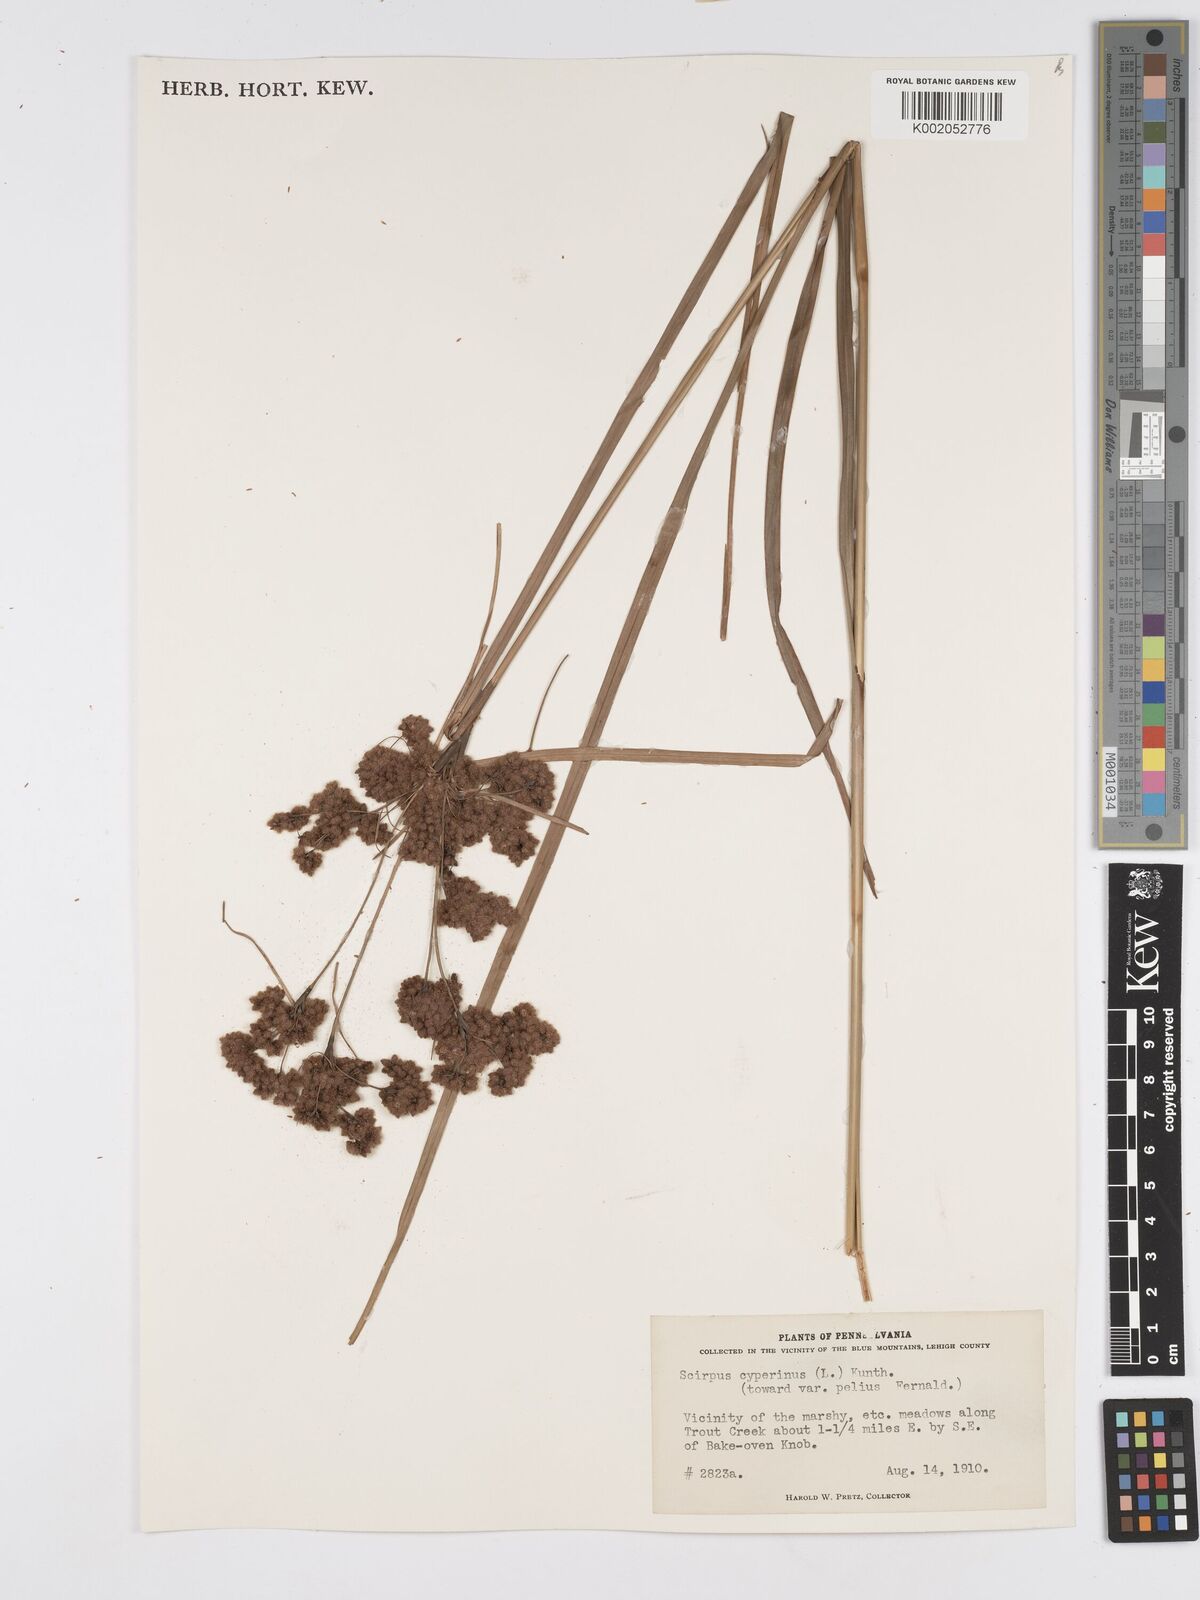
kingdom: Plantae
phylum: Tracheophyta
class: Liliopsida
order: Poales
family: Cyperaceae
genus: Scirpus
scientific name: Scirpus cyperinus
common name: Black-sheathed bulrush
